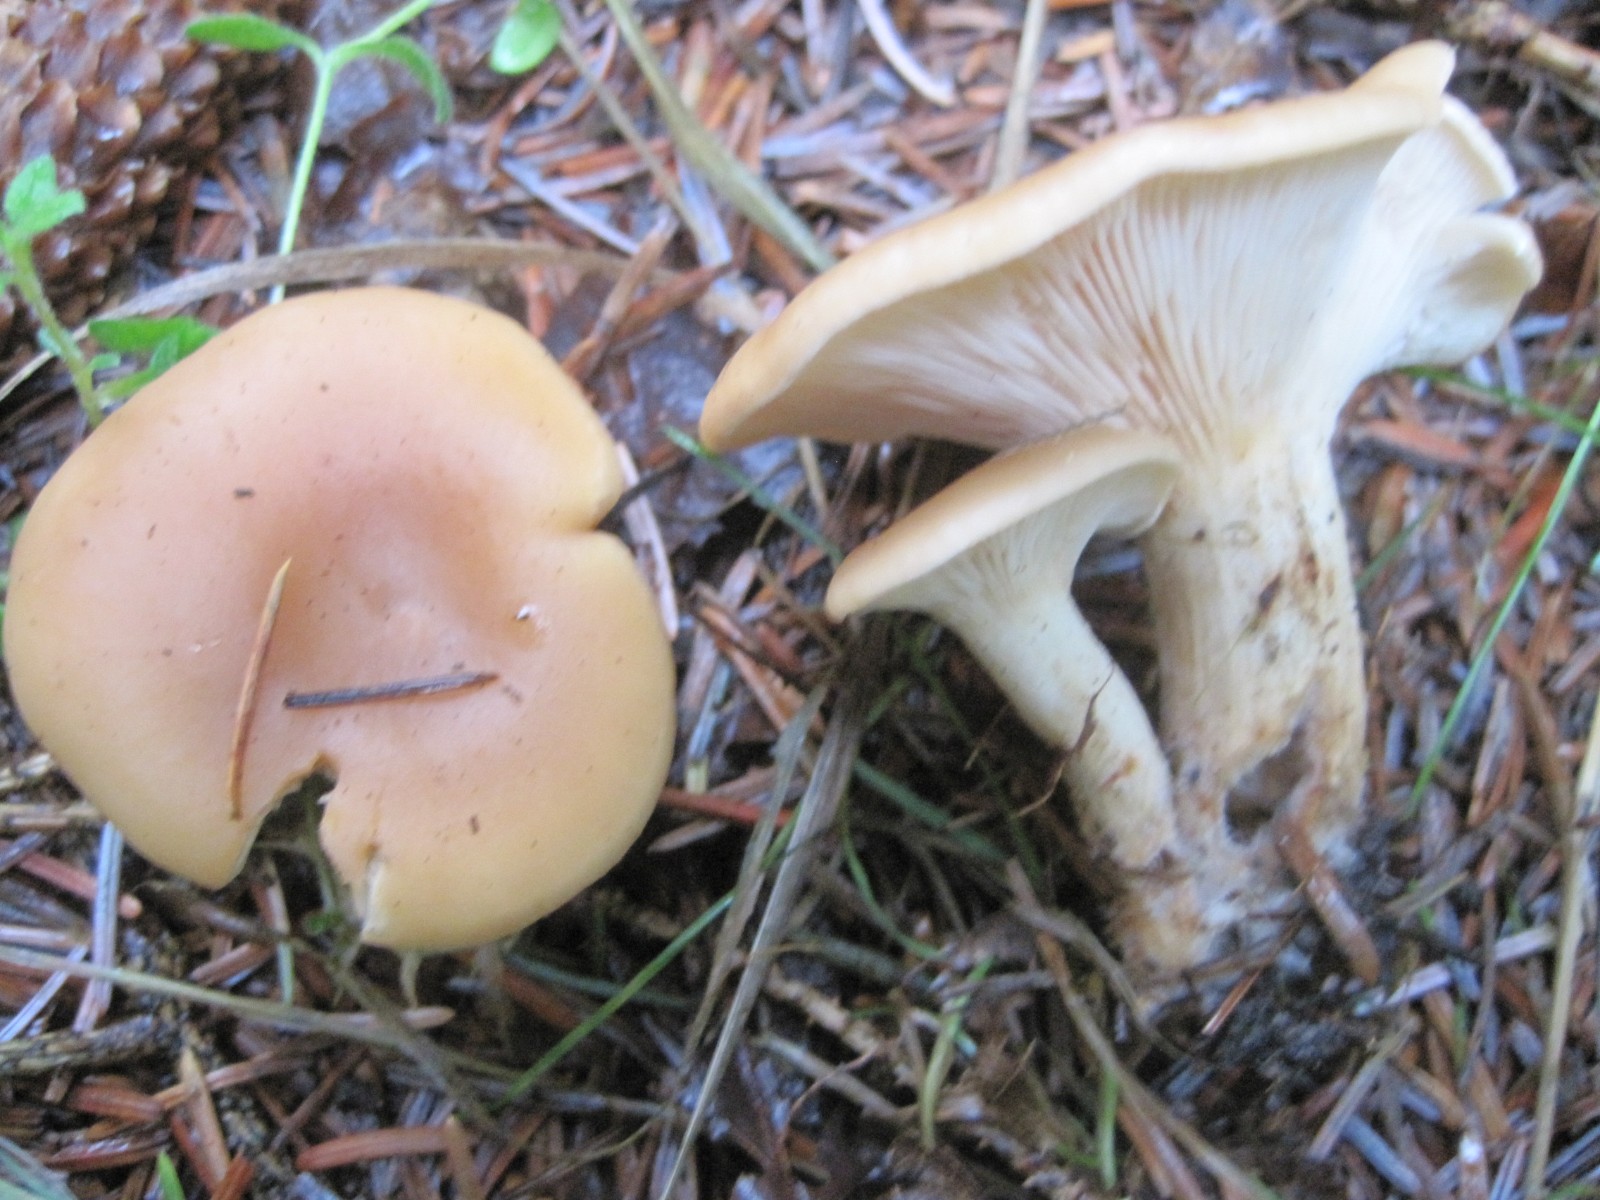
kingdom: Fungi
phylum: Basidiomycota
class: Agaricomycetes
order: Agaricales
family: Tricholomataceae
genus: Paralepista
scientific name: Paralepista flaccida
